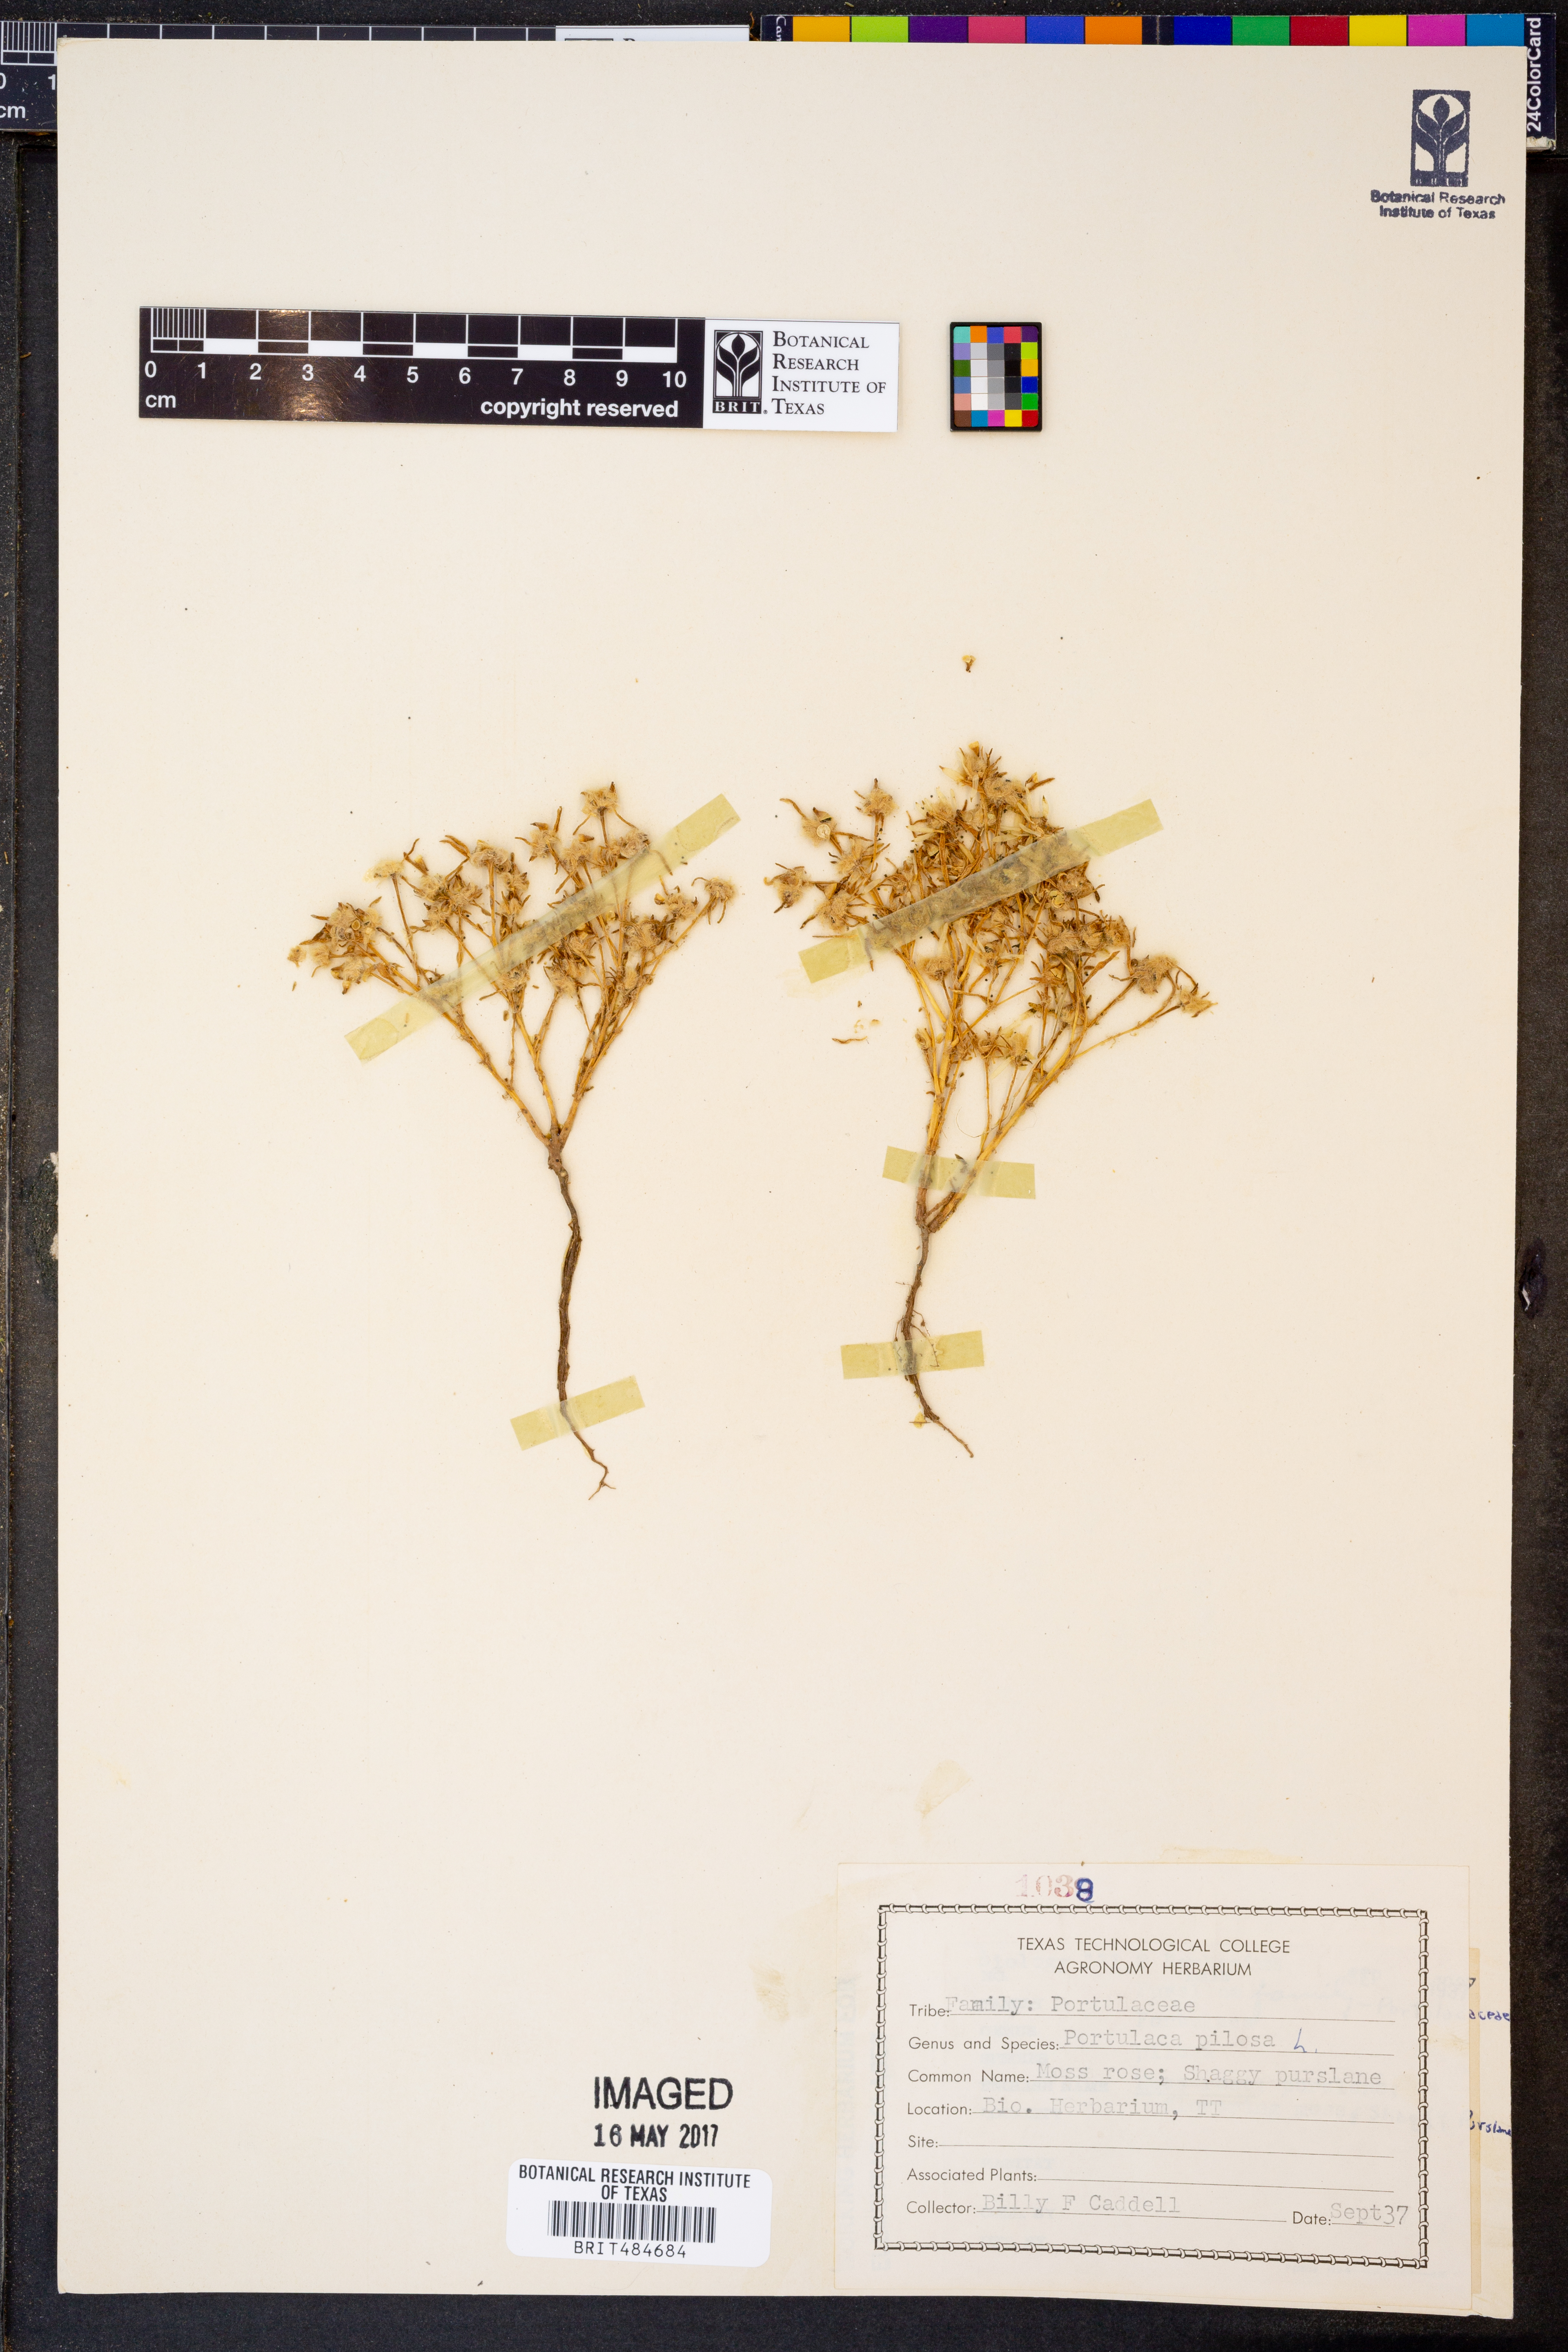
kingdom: Plantae
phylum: Tracheophyta
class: Magnoliopsida
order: Caryophyllales
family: Portulacaceae
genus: Portulaca
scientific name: Portulaca pilosa
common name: Kiss me quick
